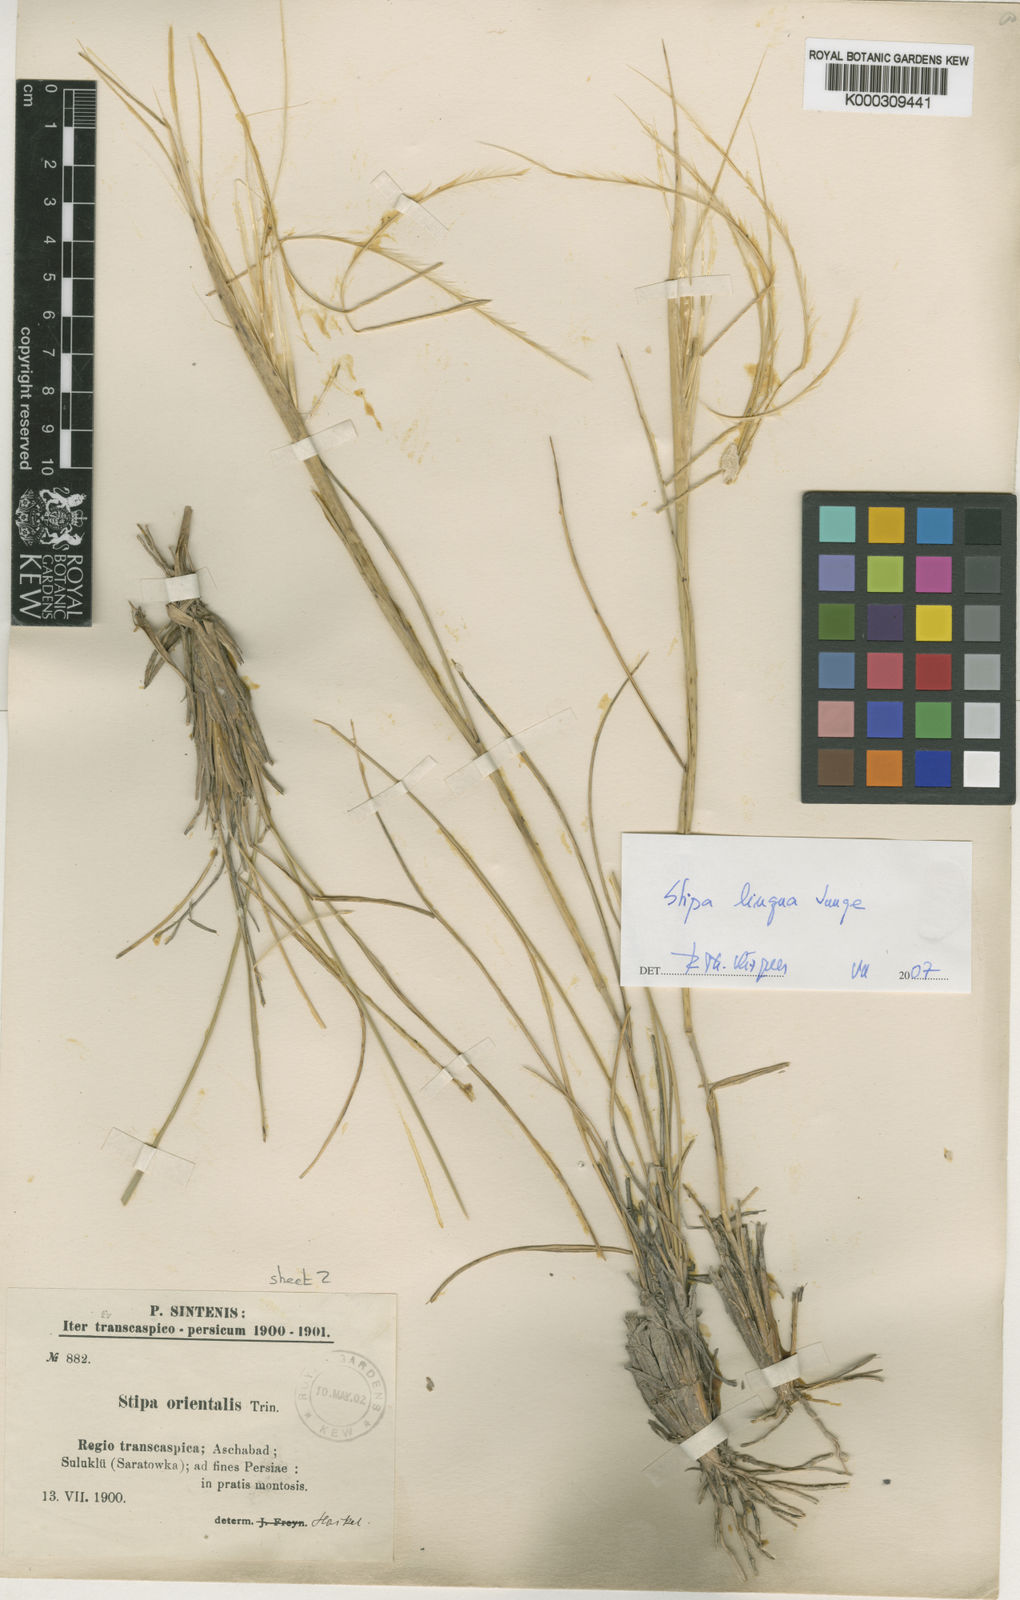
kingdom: Plantae
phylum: Tracheophyta
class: Liliopsida
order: Poales
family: Poaceae
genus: Stipa
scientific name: Stipa caucasica
